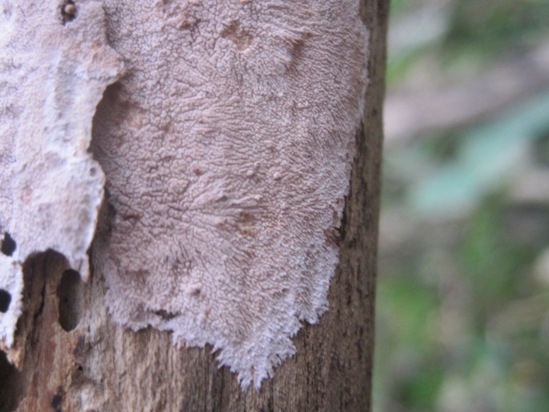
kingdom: Fungi
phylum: Basidiomycota
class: Agaricomycetes
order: Polyporales
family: Steccherinaceae
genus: Steccherinum
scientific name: Steccherinum fimbriatum
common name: trådet skønpig
